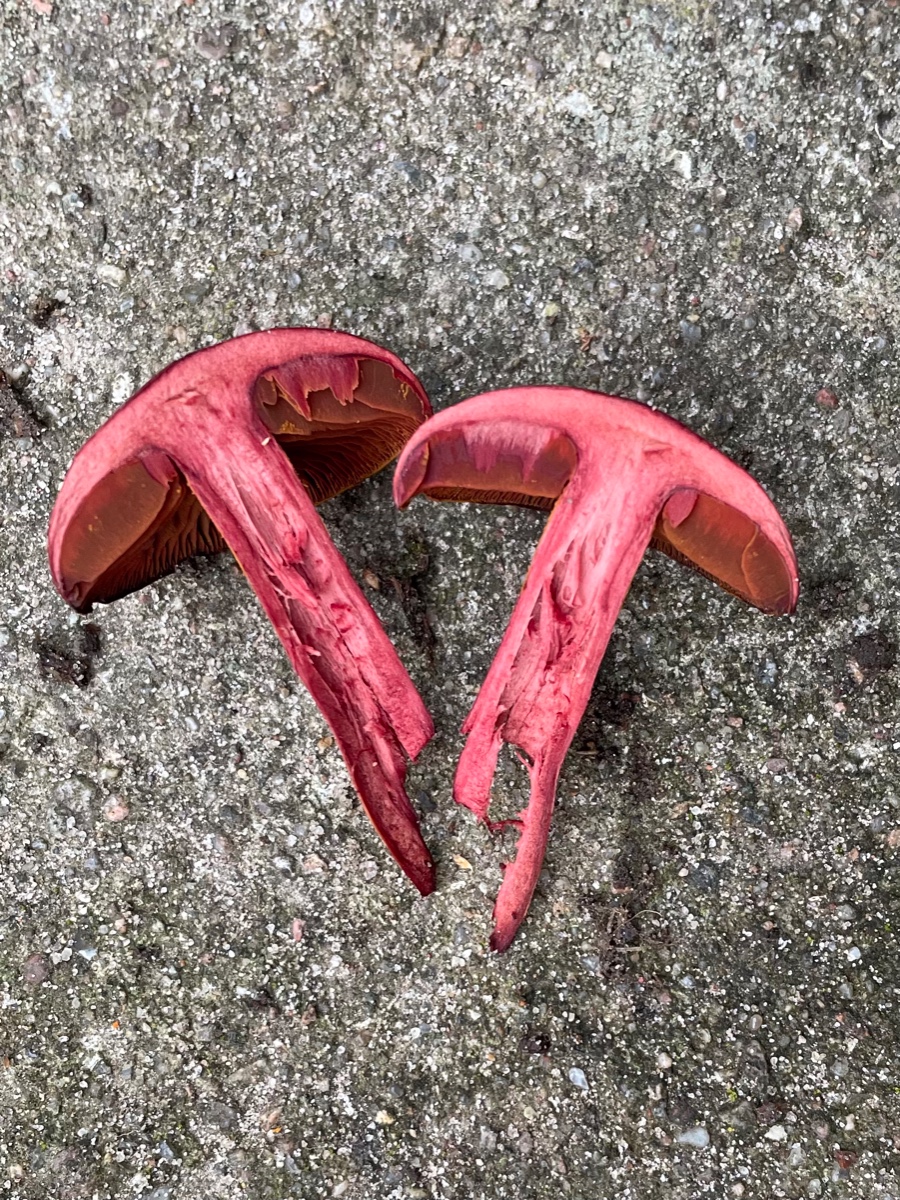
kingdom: Fungi
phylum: Basidiomycota
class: Agaricomycetes
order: Agaricales
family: Cortinariaceae
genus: Cortinarius
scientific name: Cortinarius sanguineus
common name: Bloodred webcap
